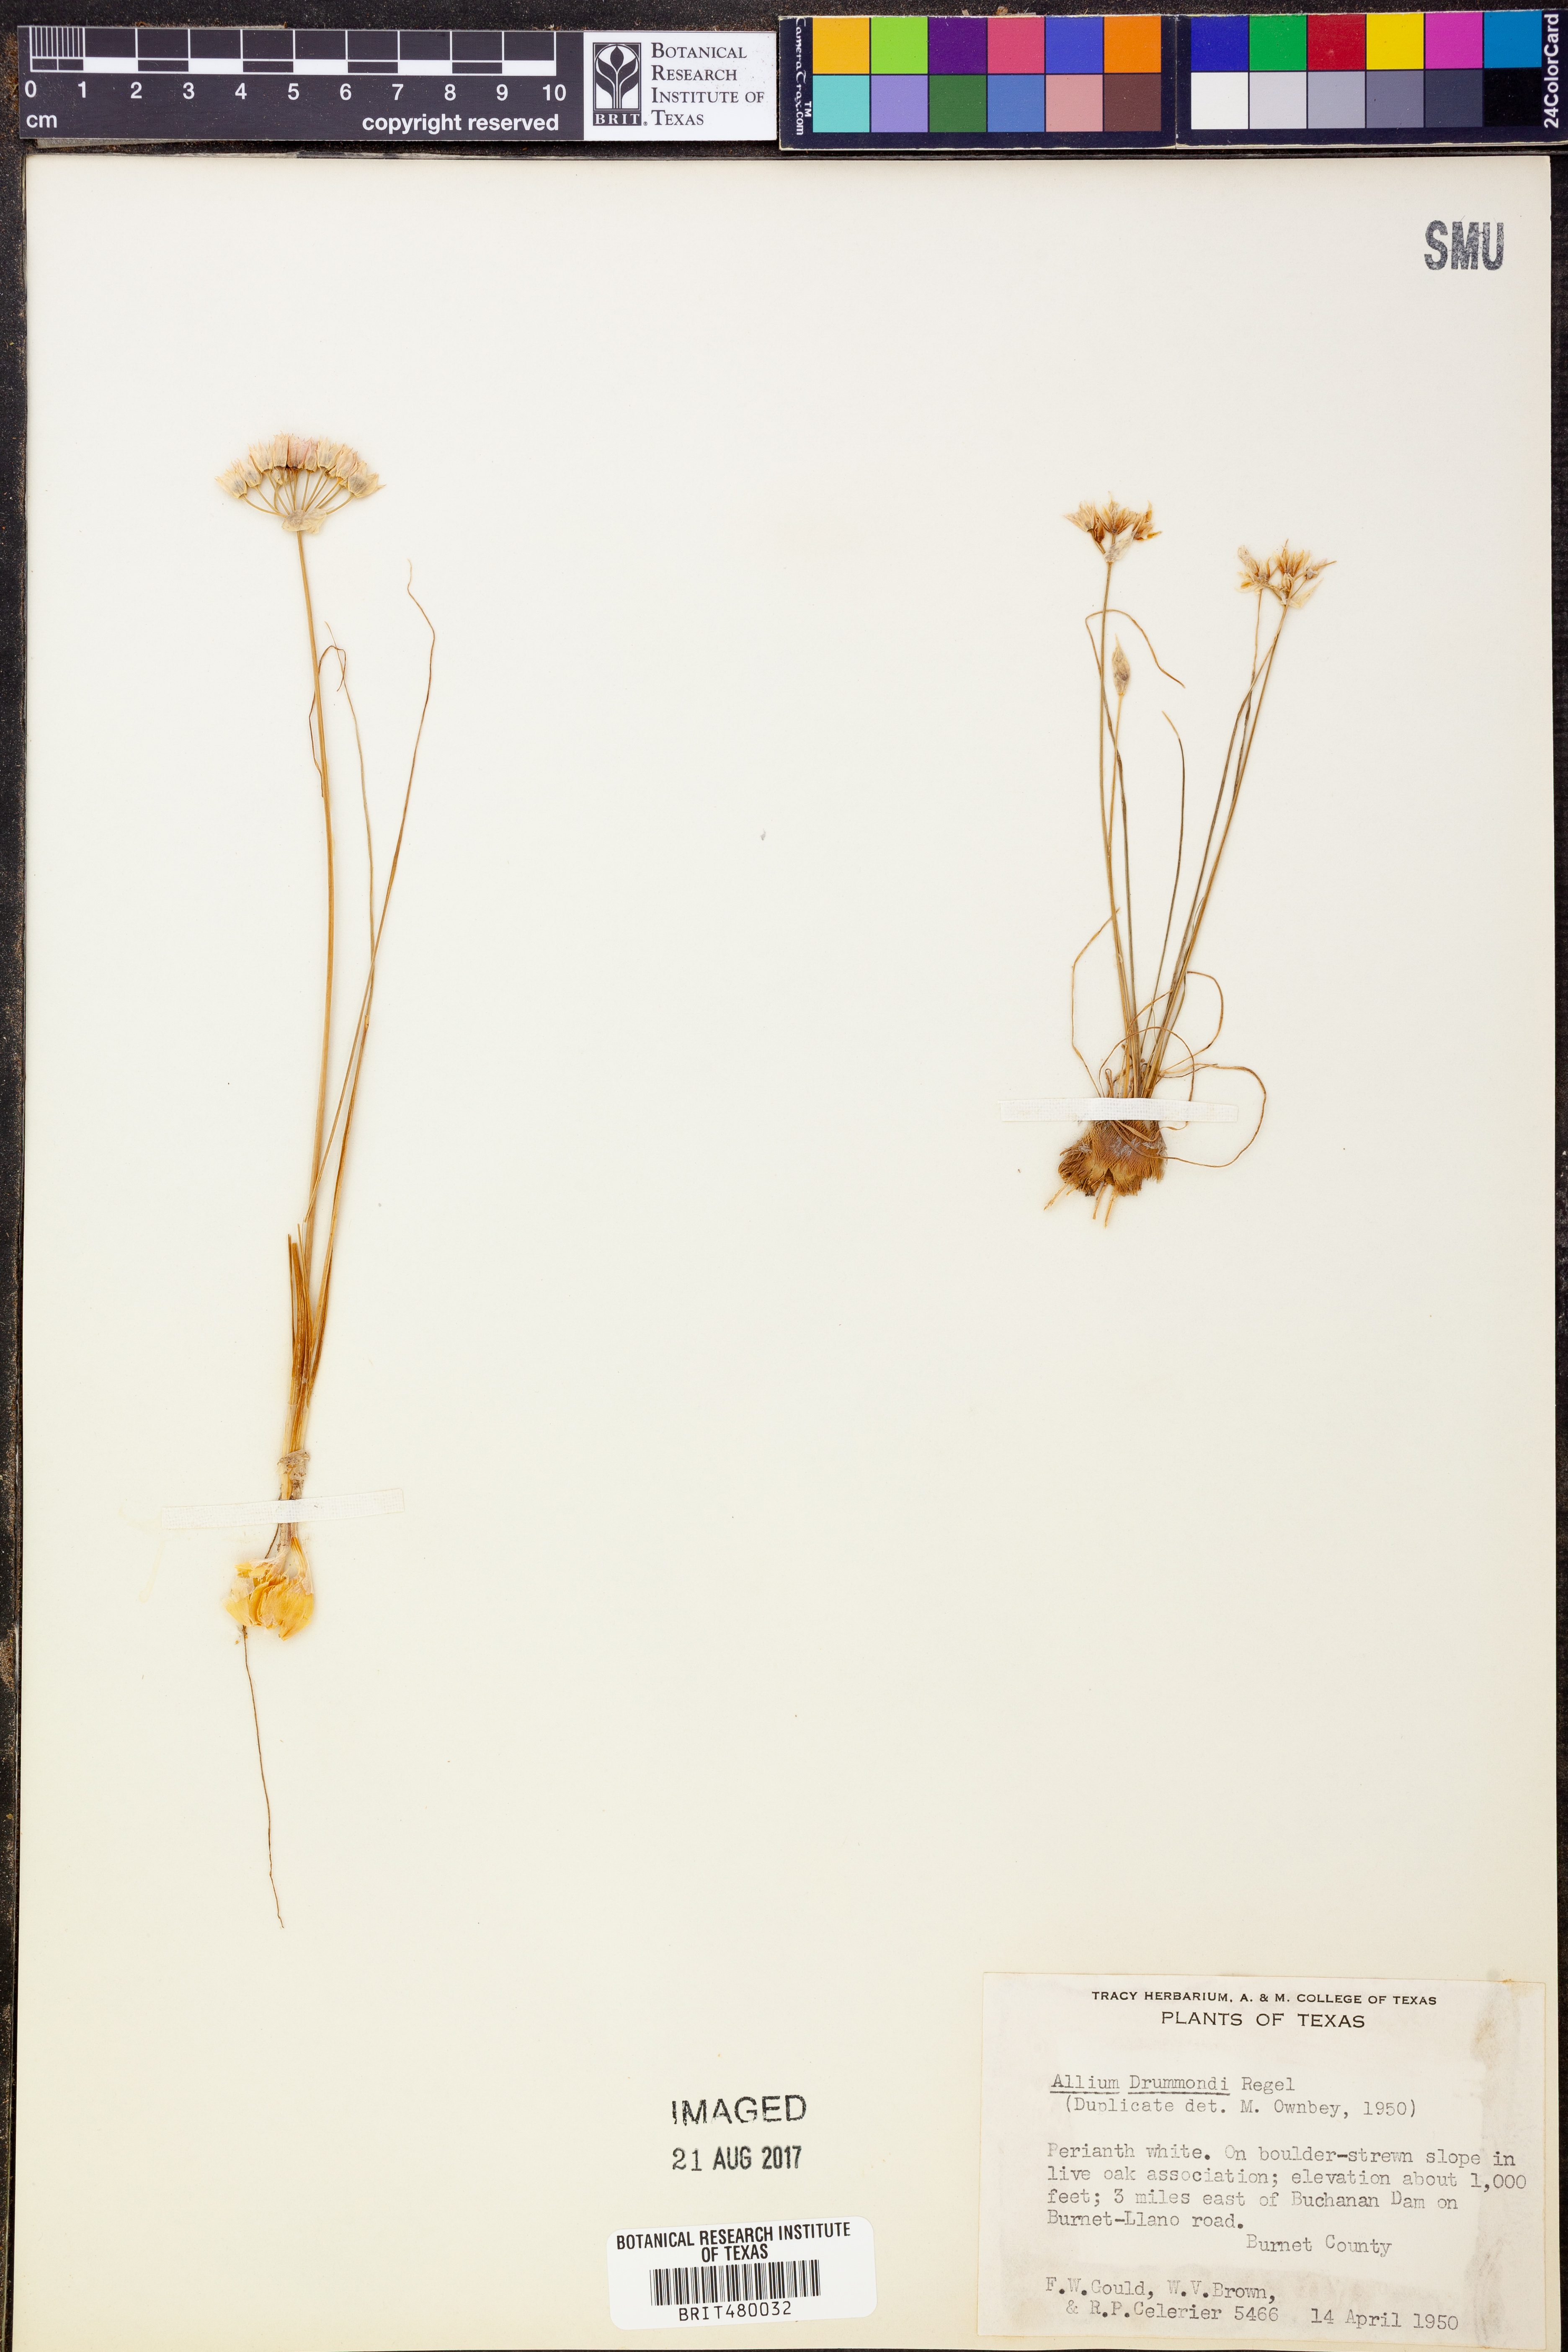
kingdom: Plantae
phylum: Tracheophyta
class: Liliopsida
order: Asparagales
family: Amaryllidaceae
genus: Allium
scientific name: Allium drummondii
